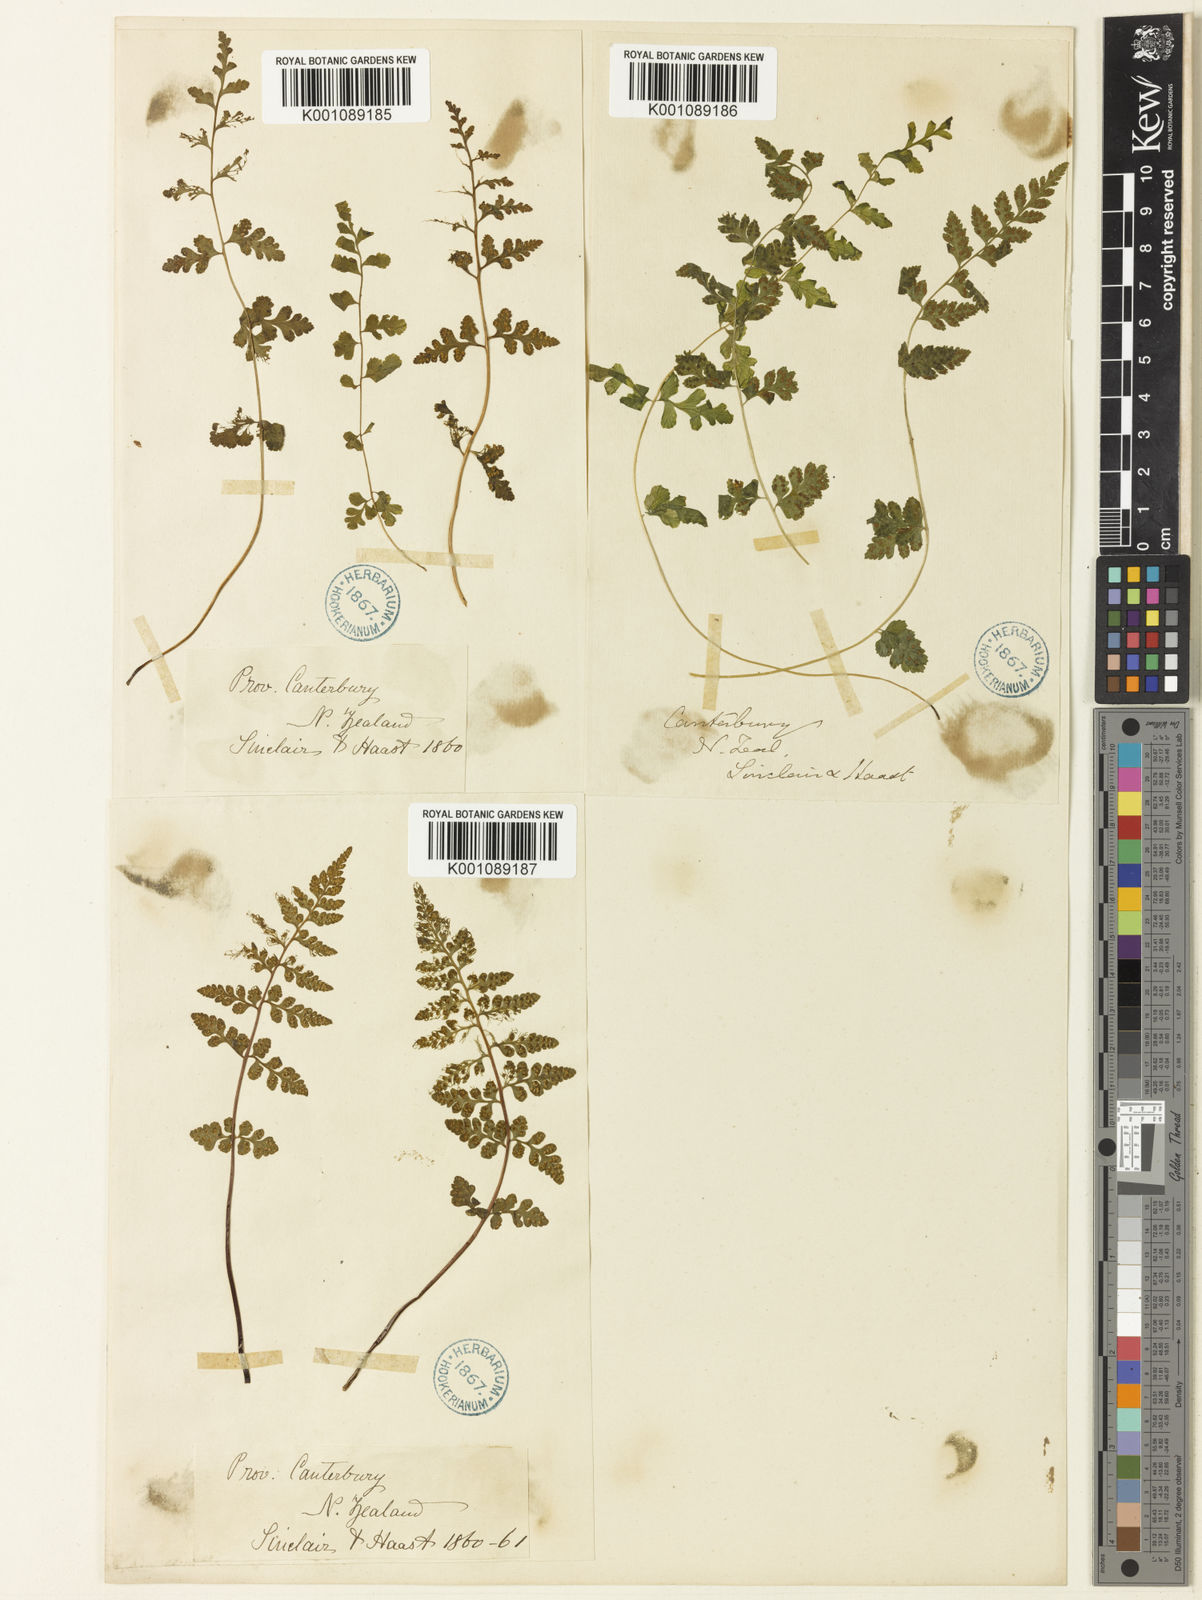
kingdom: Plantae
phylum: Tracheophyta
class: Polypodiopsida
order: Polypodiales
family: Cystopteridaceae
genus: Cystopteris
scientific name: Cystopteris fragilis
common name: Brittle bladder fern
